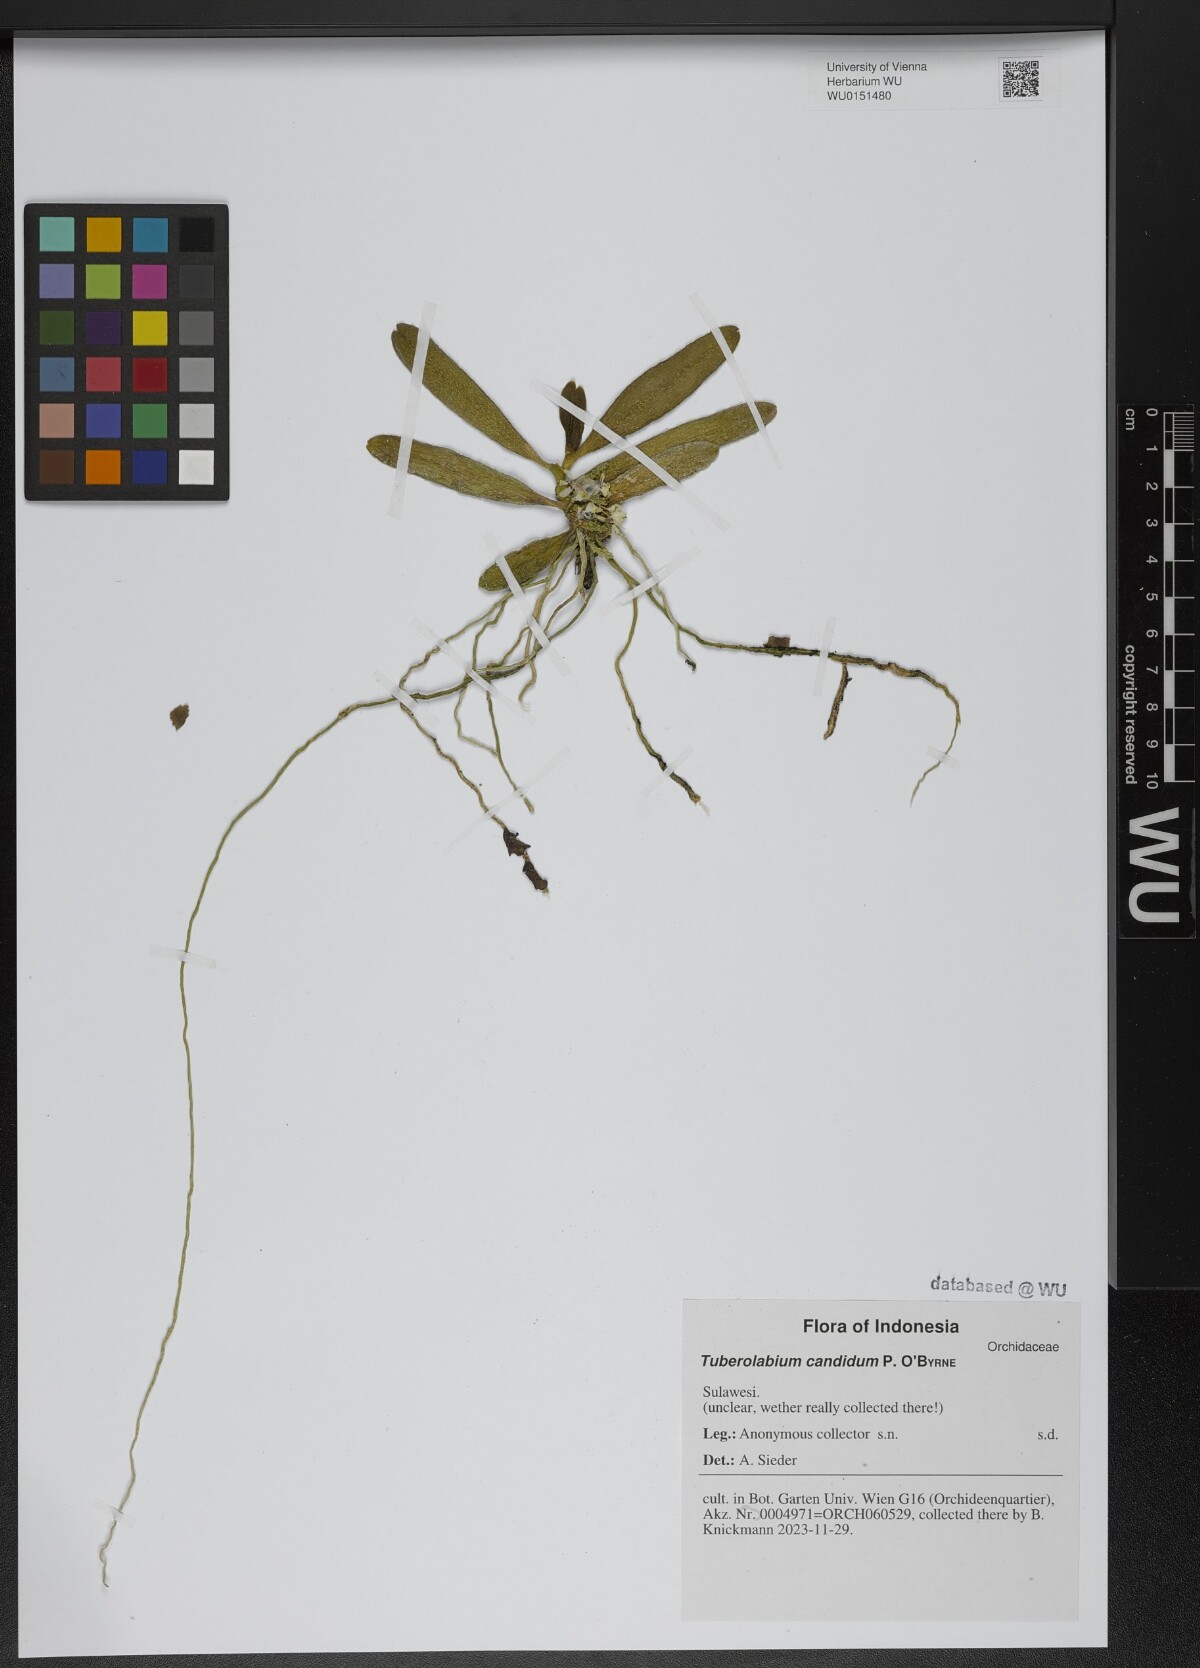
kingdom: Plantae
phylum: Tracheophyta
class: Liliopsida
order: Asparagales
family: Orchidaceae
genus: Trachoma
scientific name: Trachoma candida
